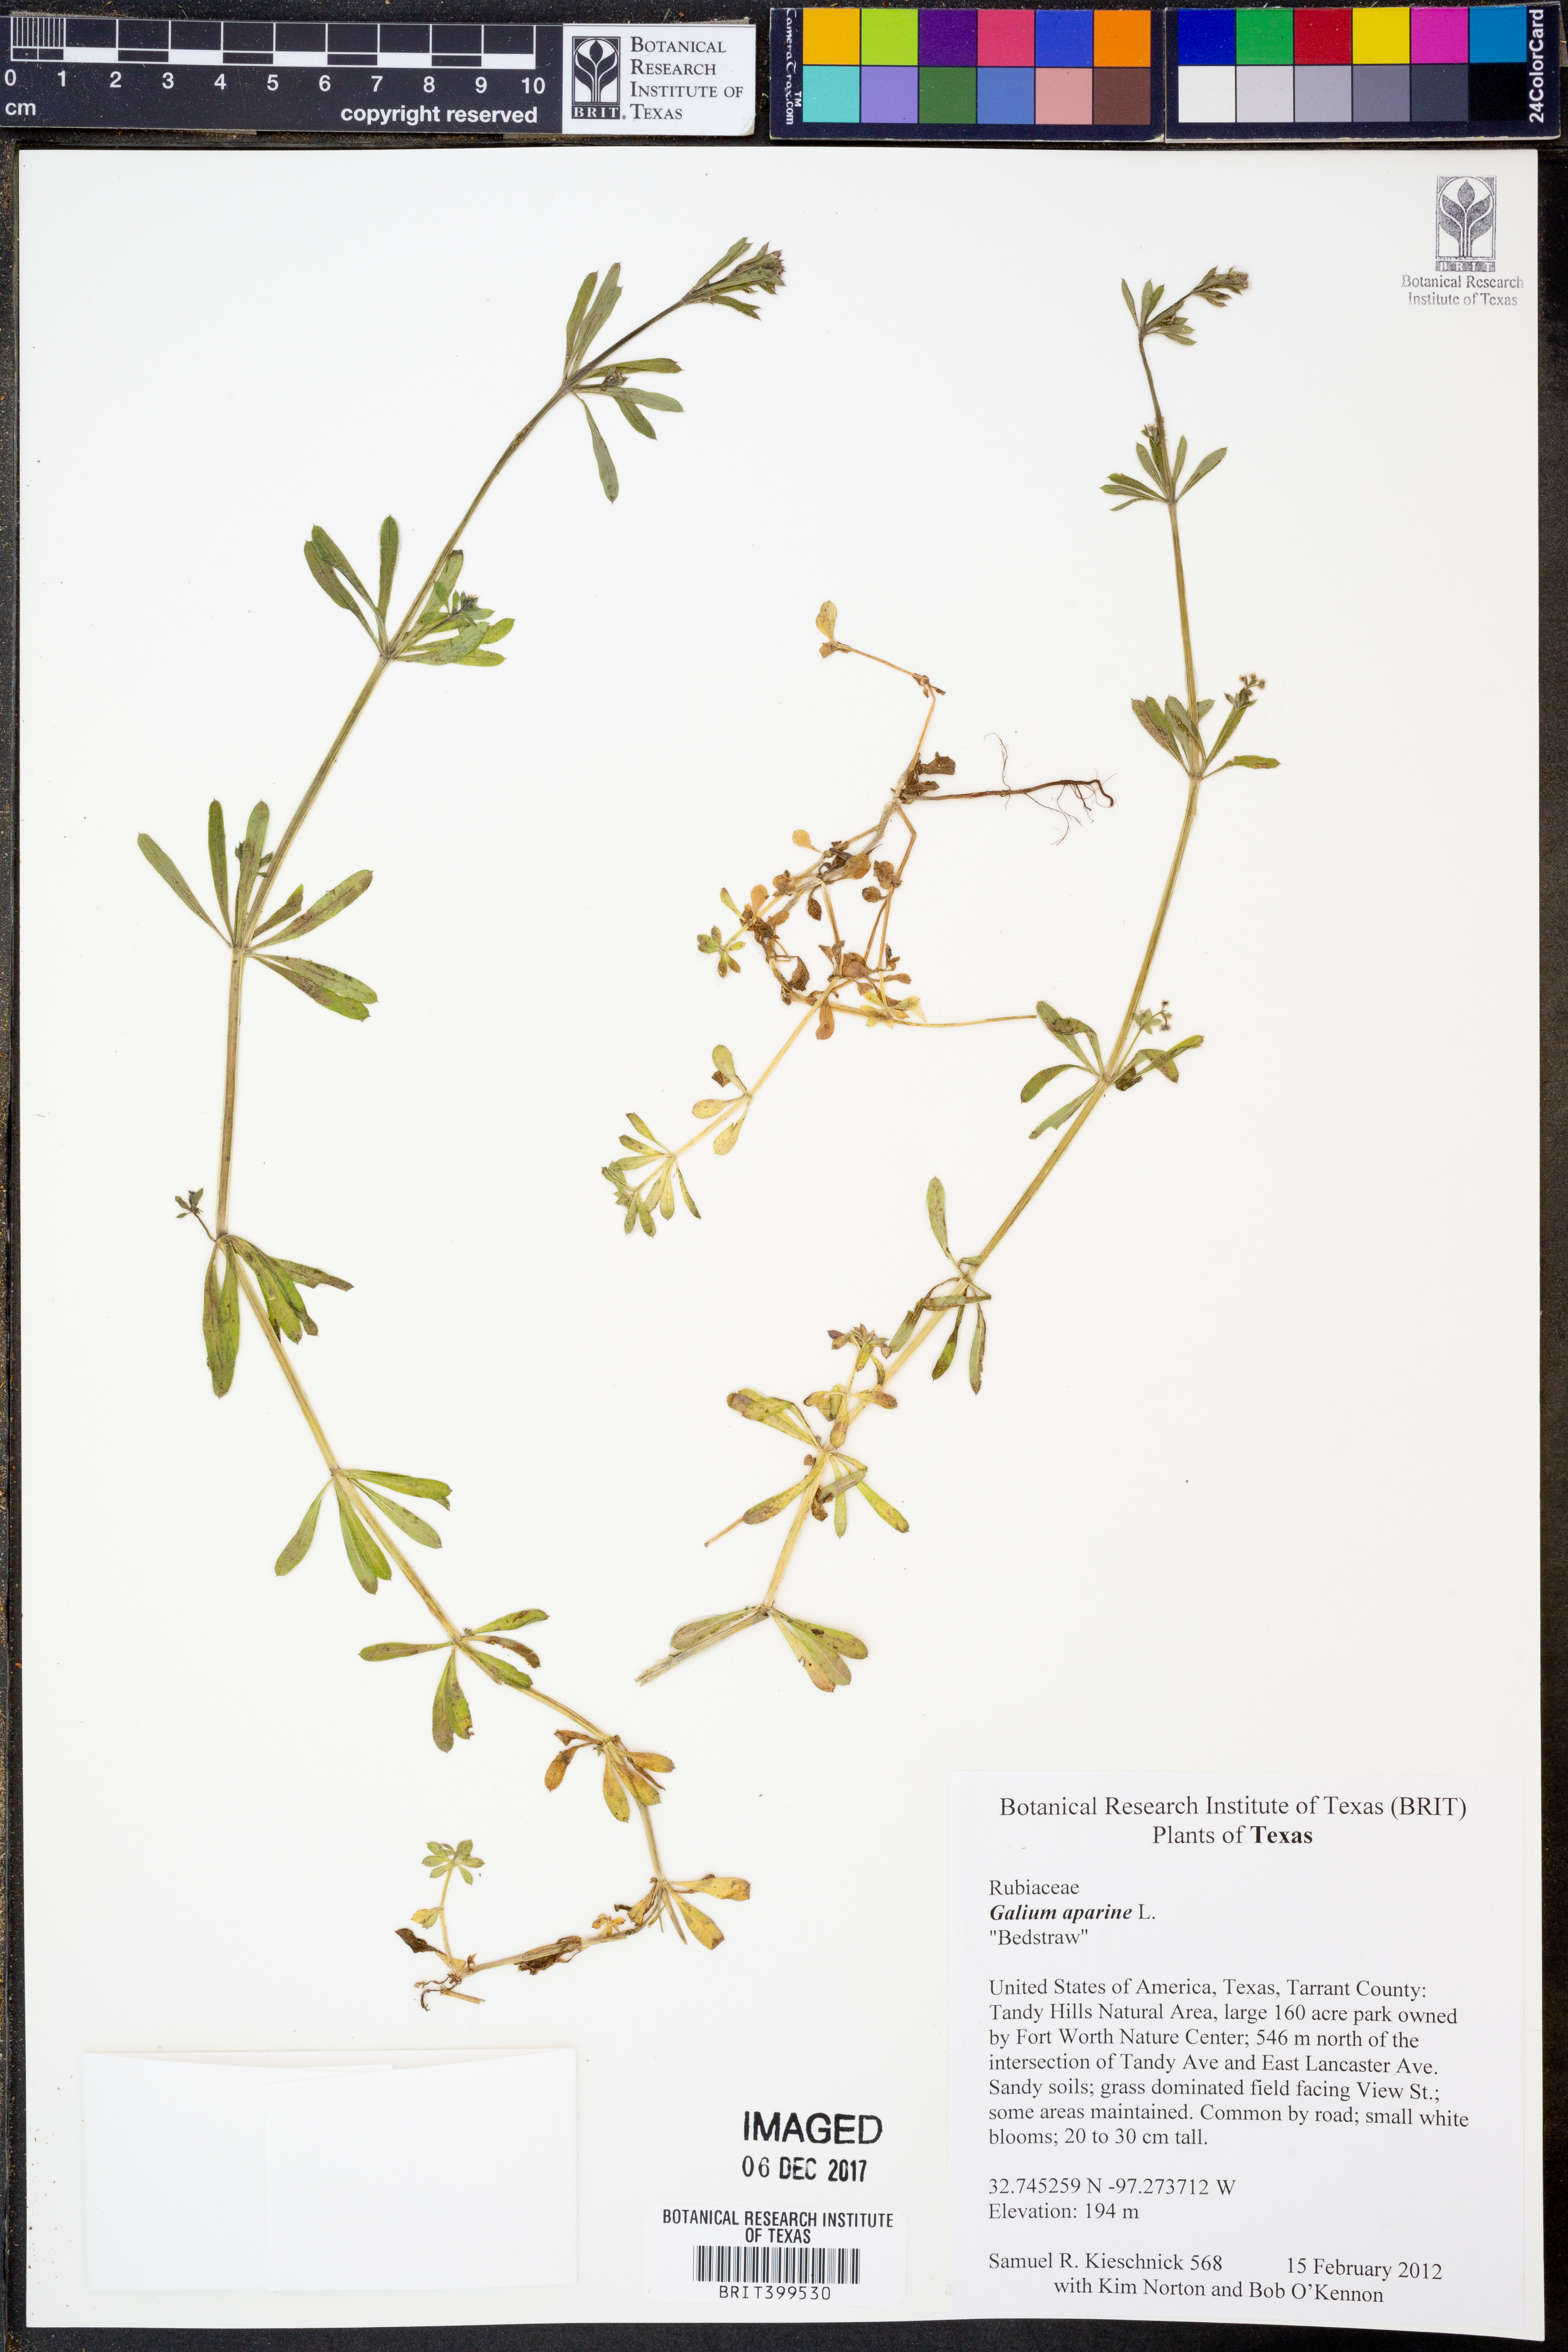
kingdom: Plantae
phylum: Tracheophyta
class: Magnoliopsida
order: Gentianales
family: Rubiaceae
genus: Galium
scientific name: Galium aparine
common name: Cleavers
